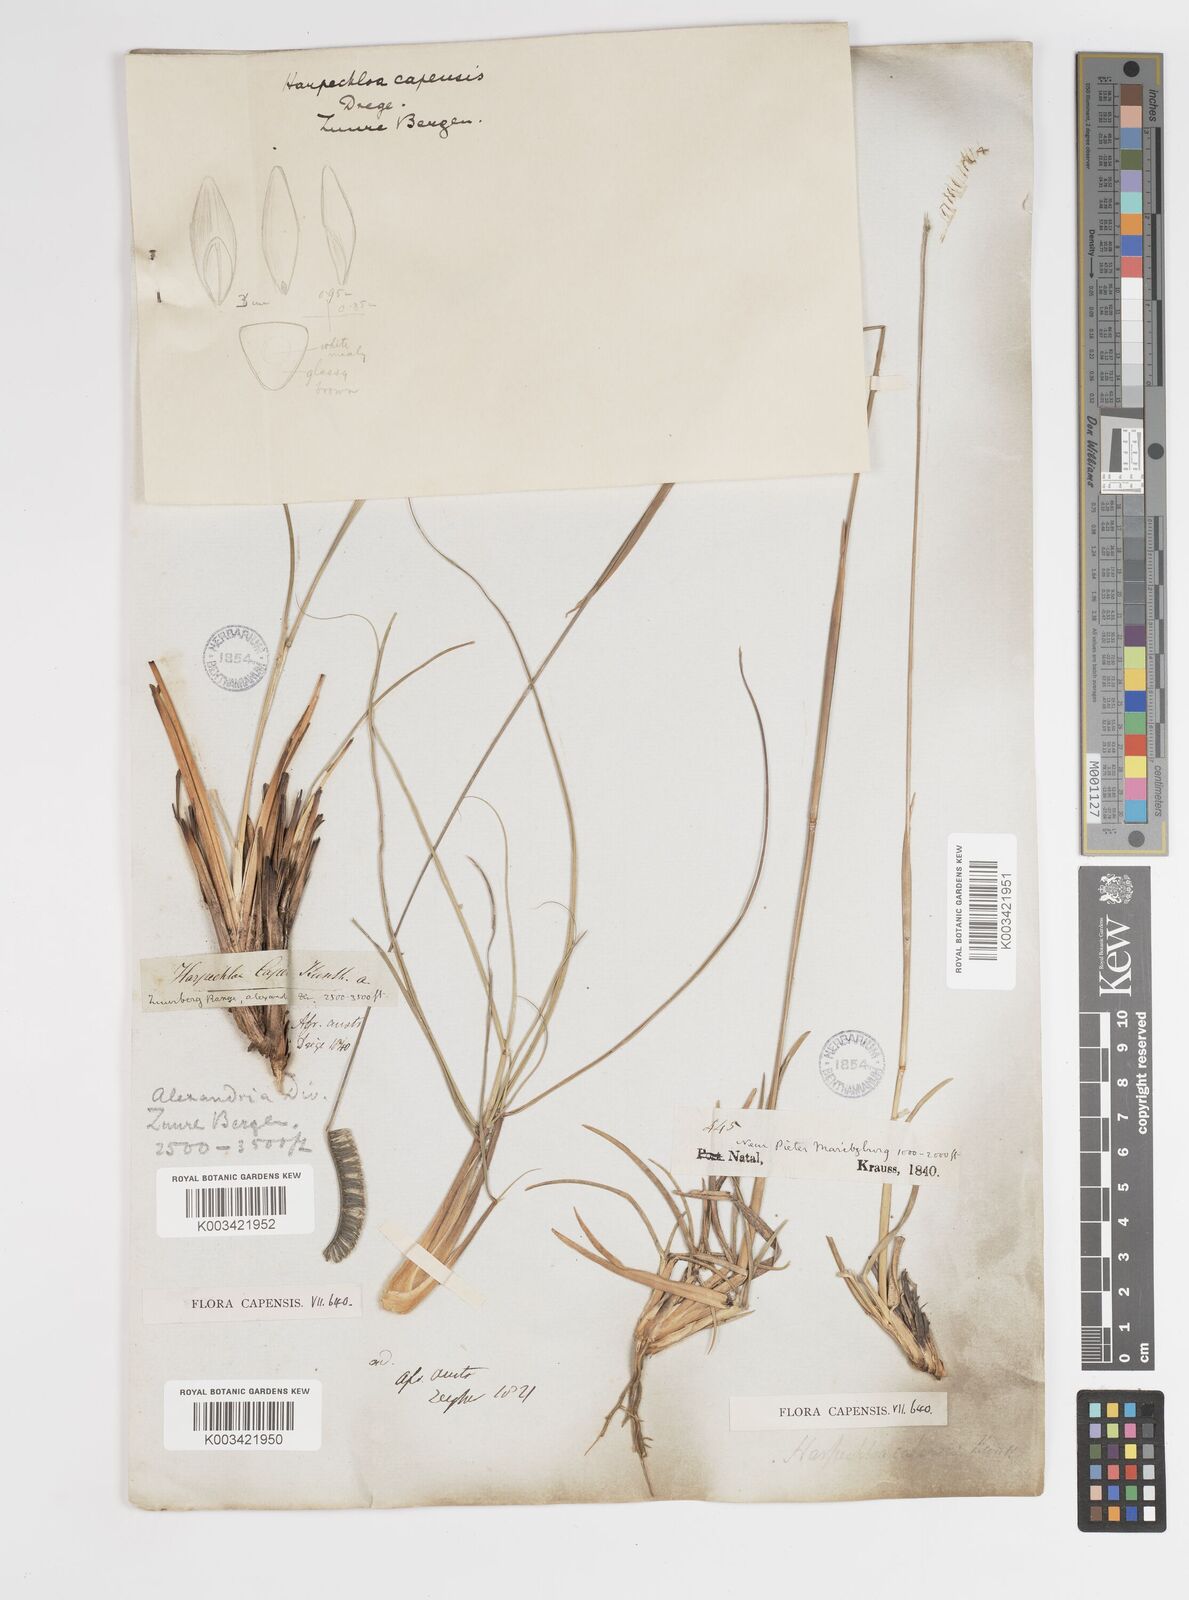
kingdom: Plantae
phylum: Tracheophyta
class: Liliopsida
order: Poales
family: Poaceae
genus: Harpochloa
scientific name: Harpochloa falx
